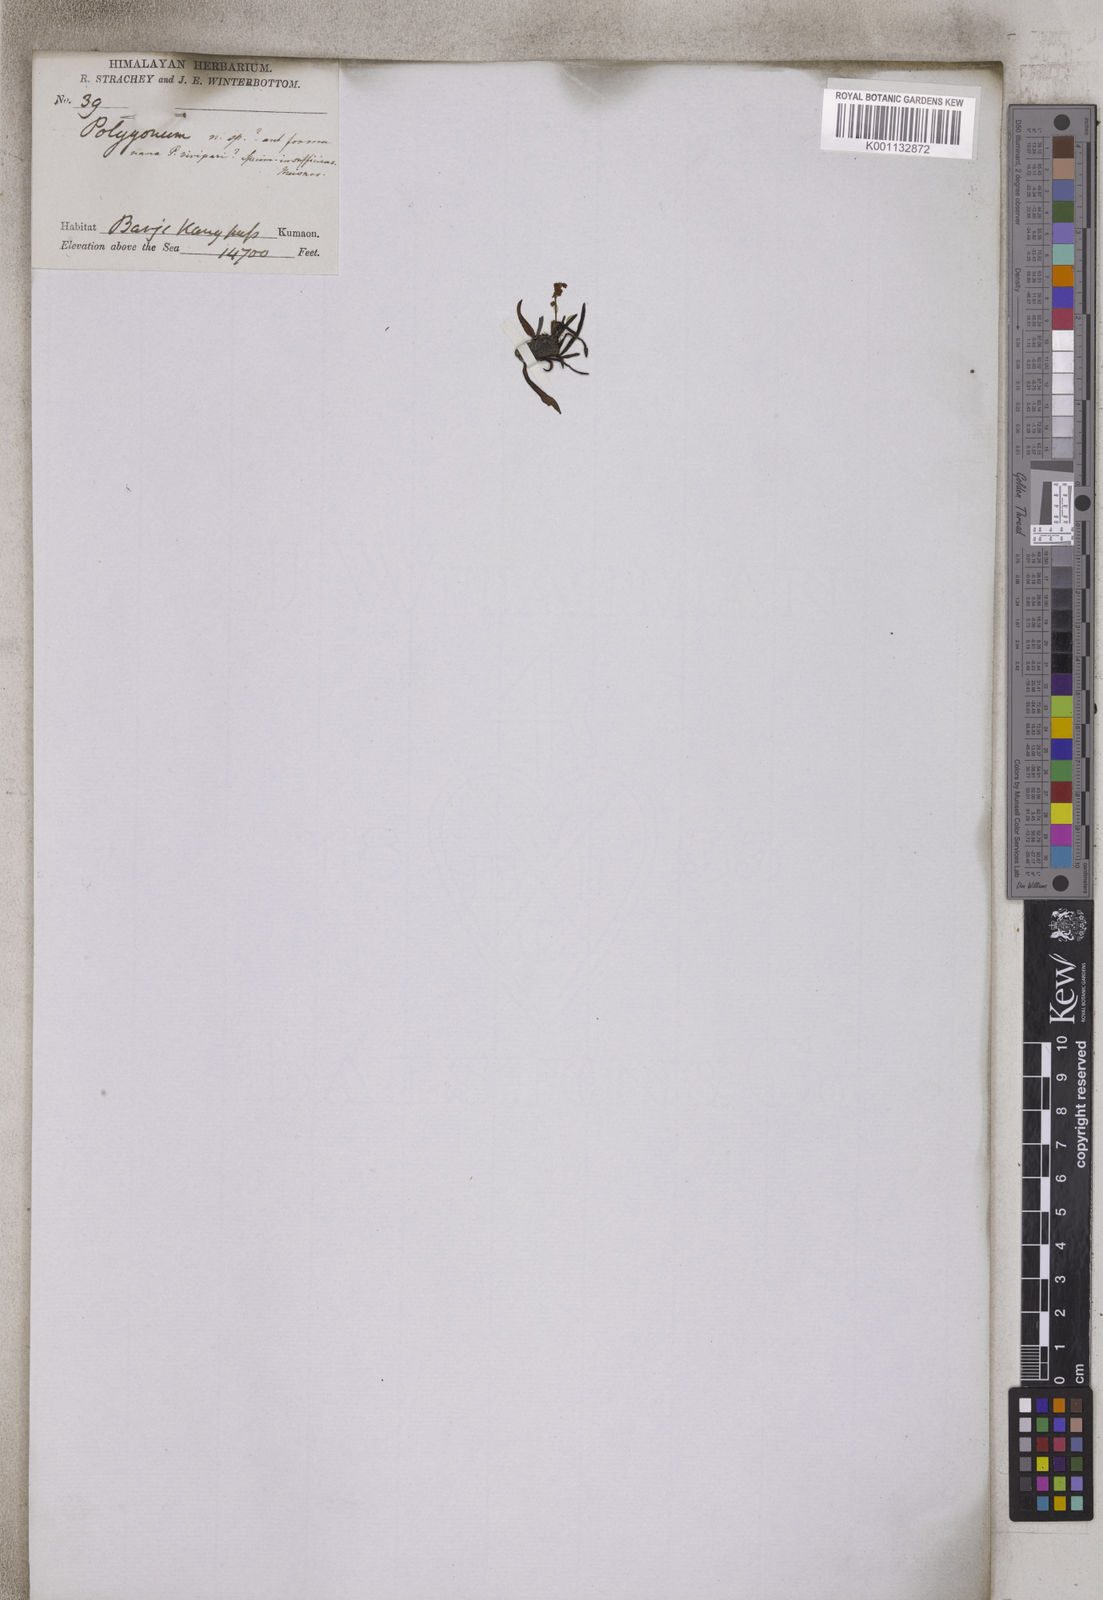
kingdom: Plantae
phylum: Tracheophyta
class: Magnoliopsida
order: Caryophyllales
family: Polygonaceae
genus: Bistorta
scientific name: Bistorta vivipara
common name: Alpine bistort
